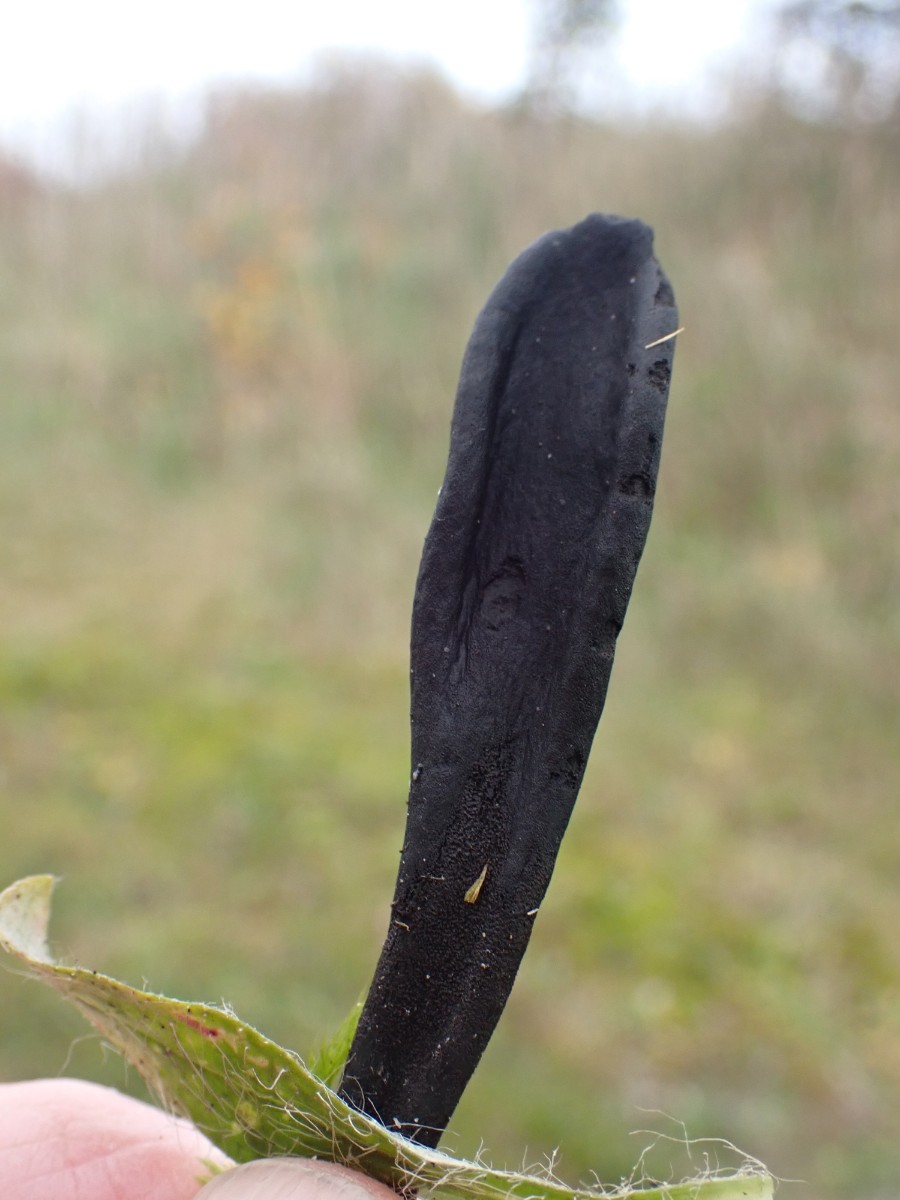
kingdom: Fungi
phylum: Ascomycota
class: Geoglossomycetes
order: Geoglossales
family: Geoglossaceae
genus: Geoglossum
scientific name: Geoglossum cookeianum
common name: bred jordtunge
